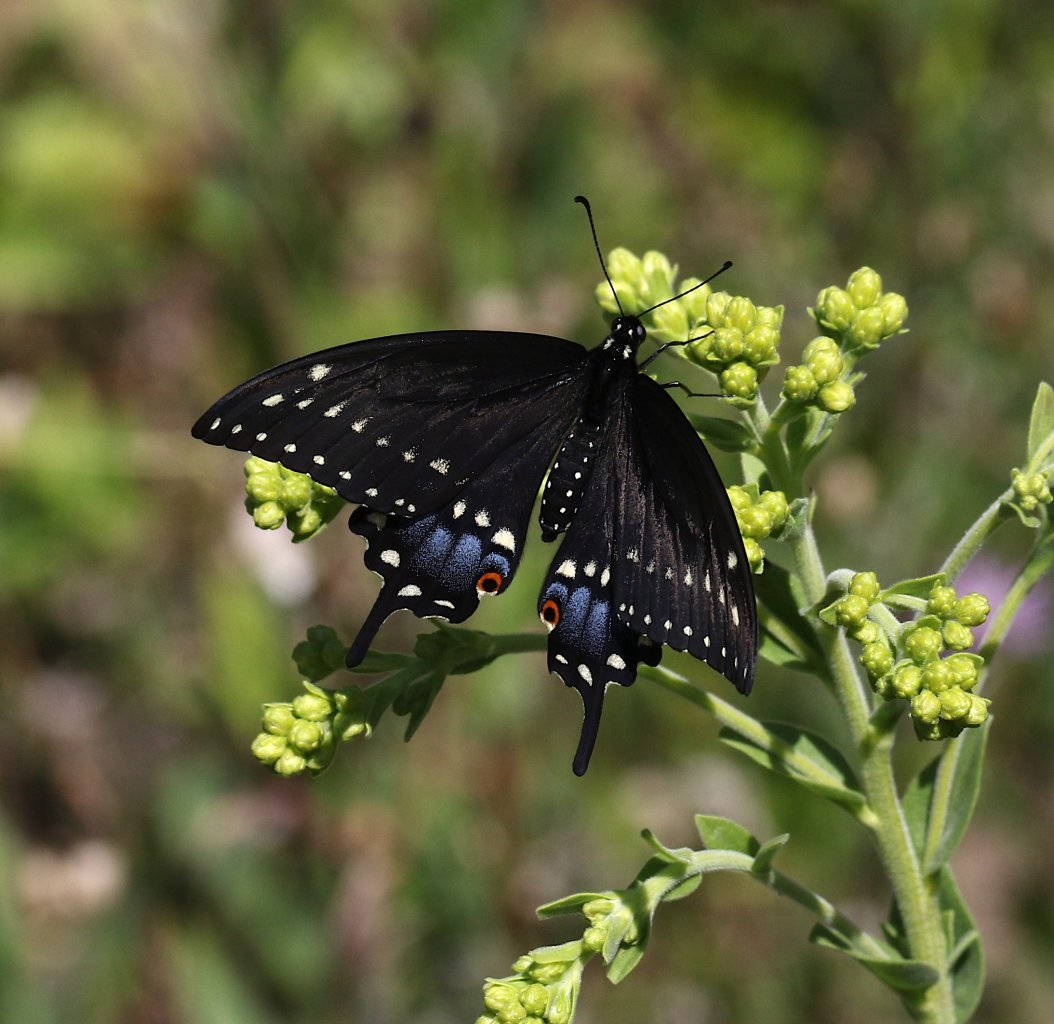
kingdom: Animalia
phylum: Arthropoda
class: Insecta
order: Lepidoptera
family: Papilionidae
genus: Papilio
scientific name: Papilio polyxenes
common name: Black Swallowtail
